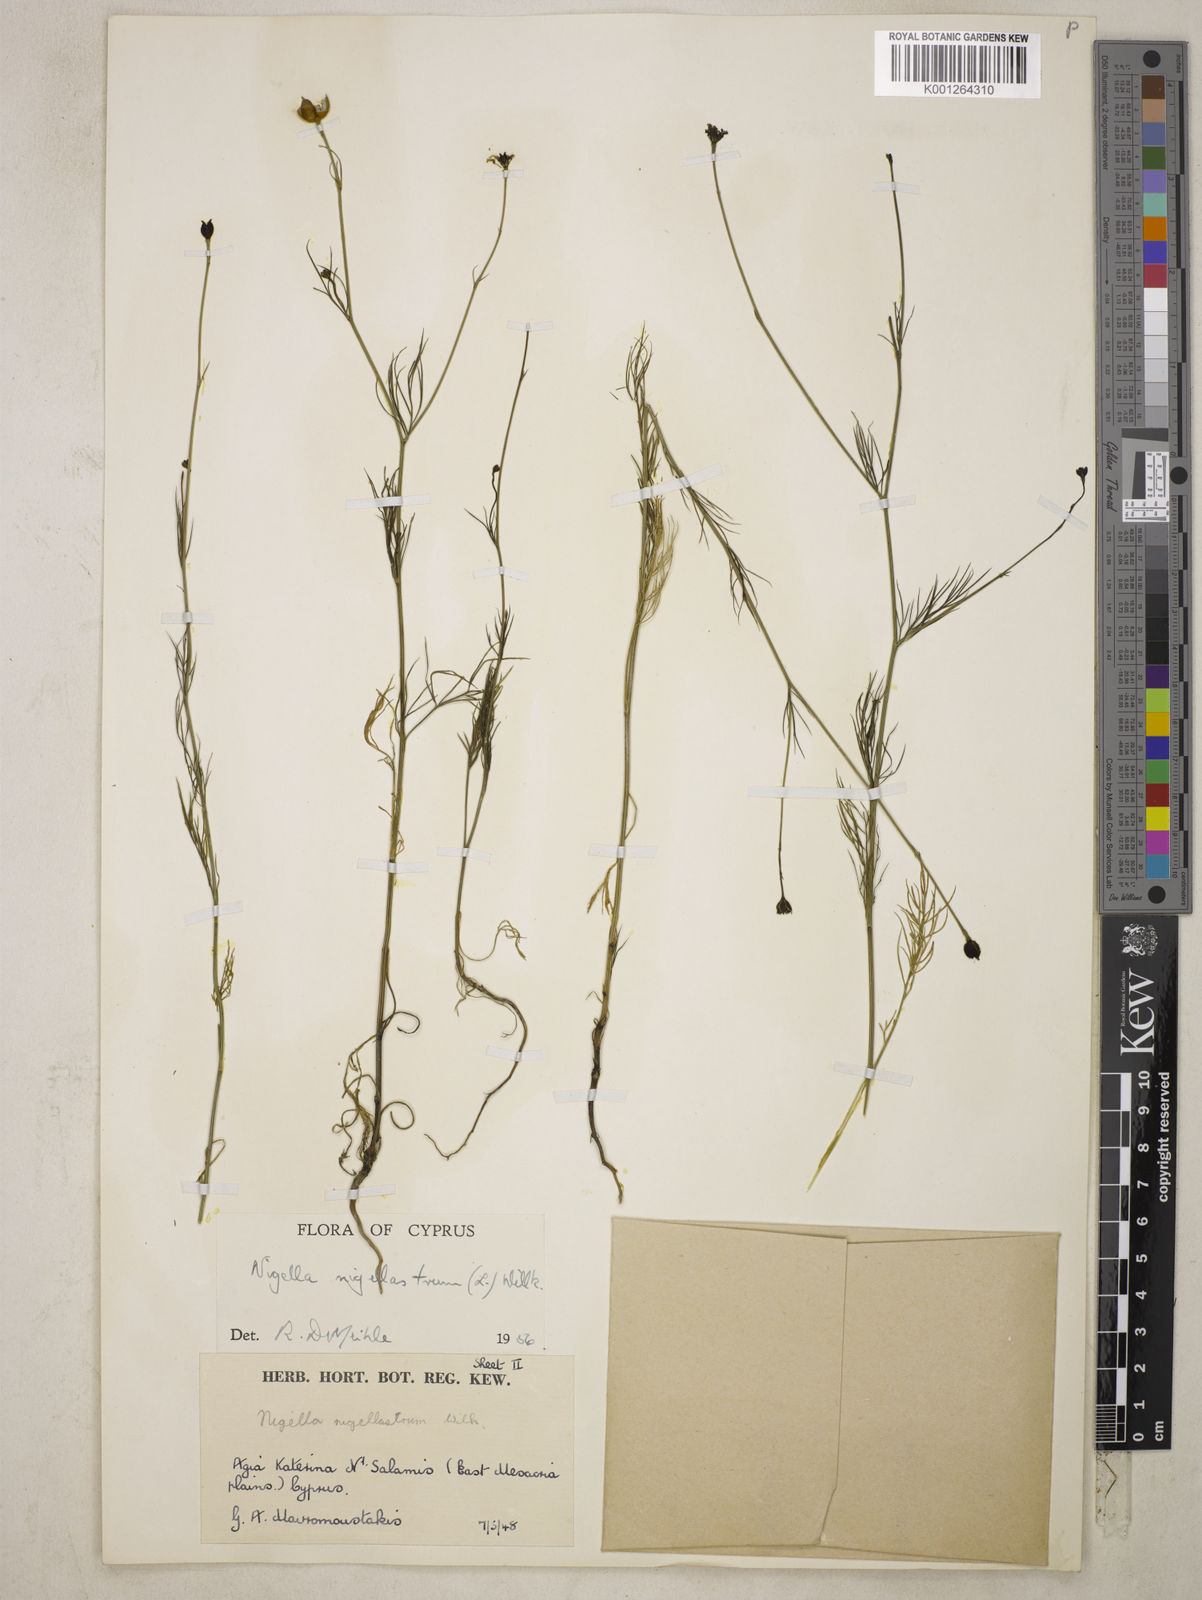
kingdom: Plantae
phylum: Tracheophyta
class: Magnoliopsida
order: Ranunculales
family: Ranunculaceae
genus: Garidella
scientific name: Garidella nigellastrum
